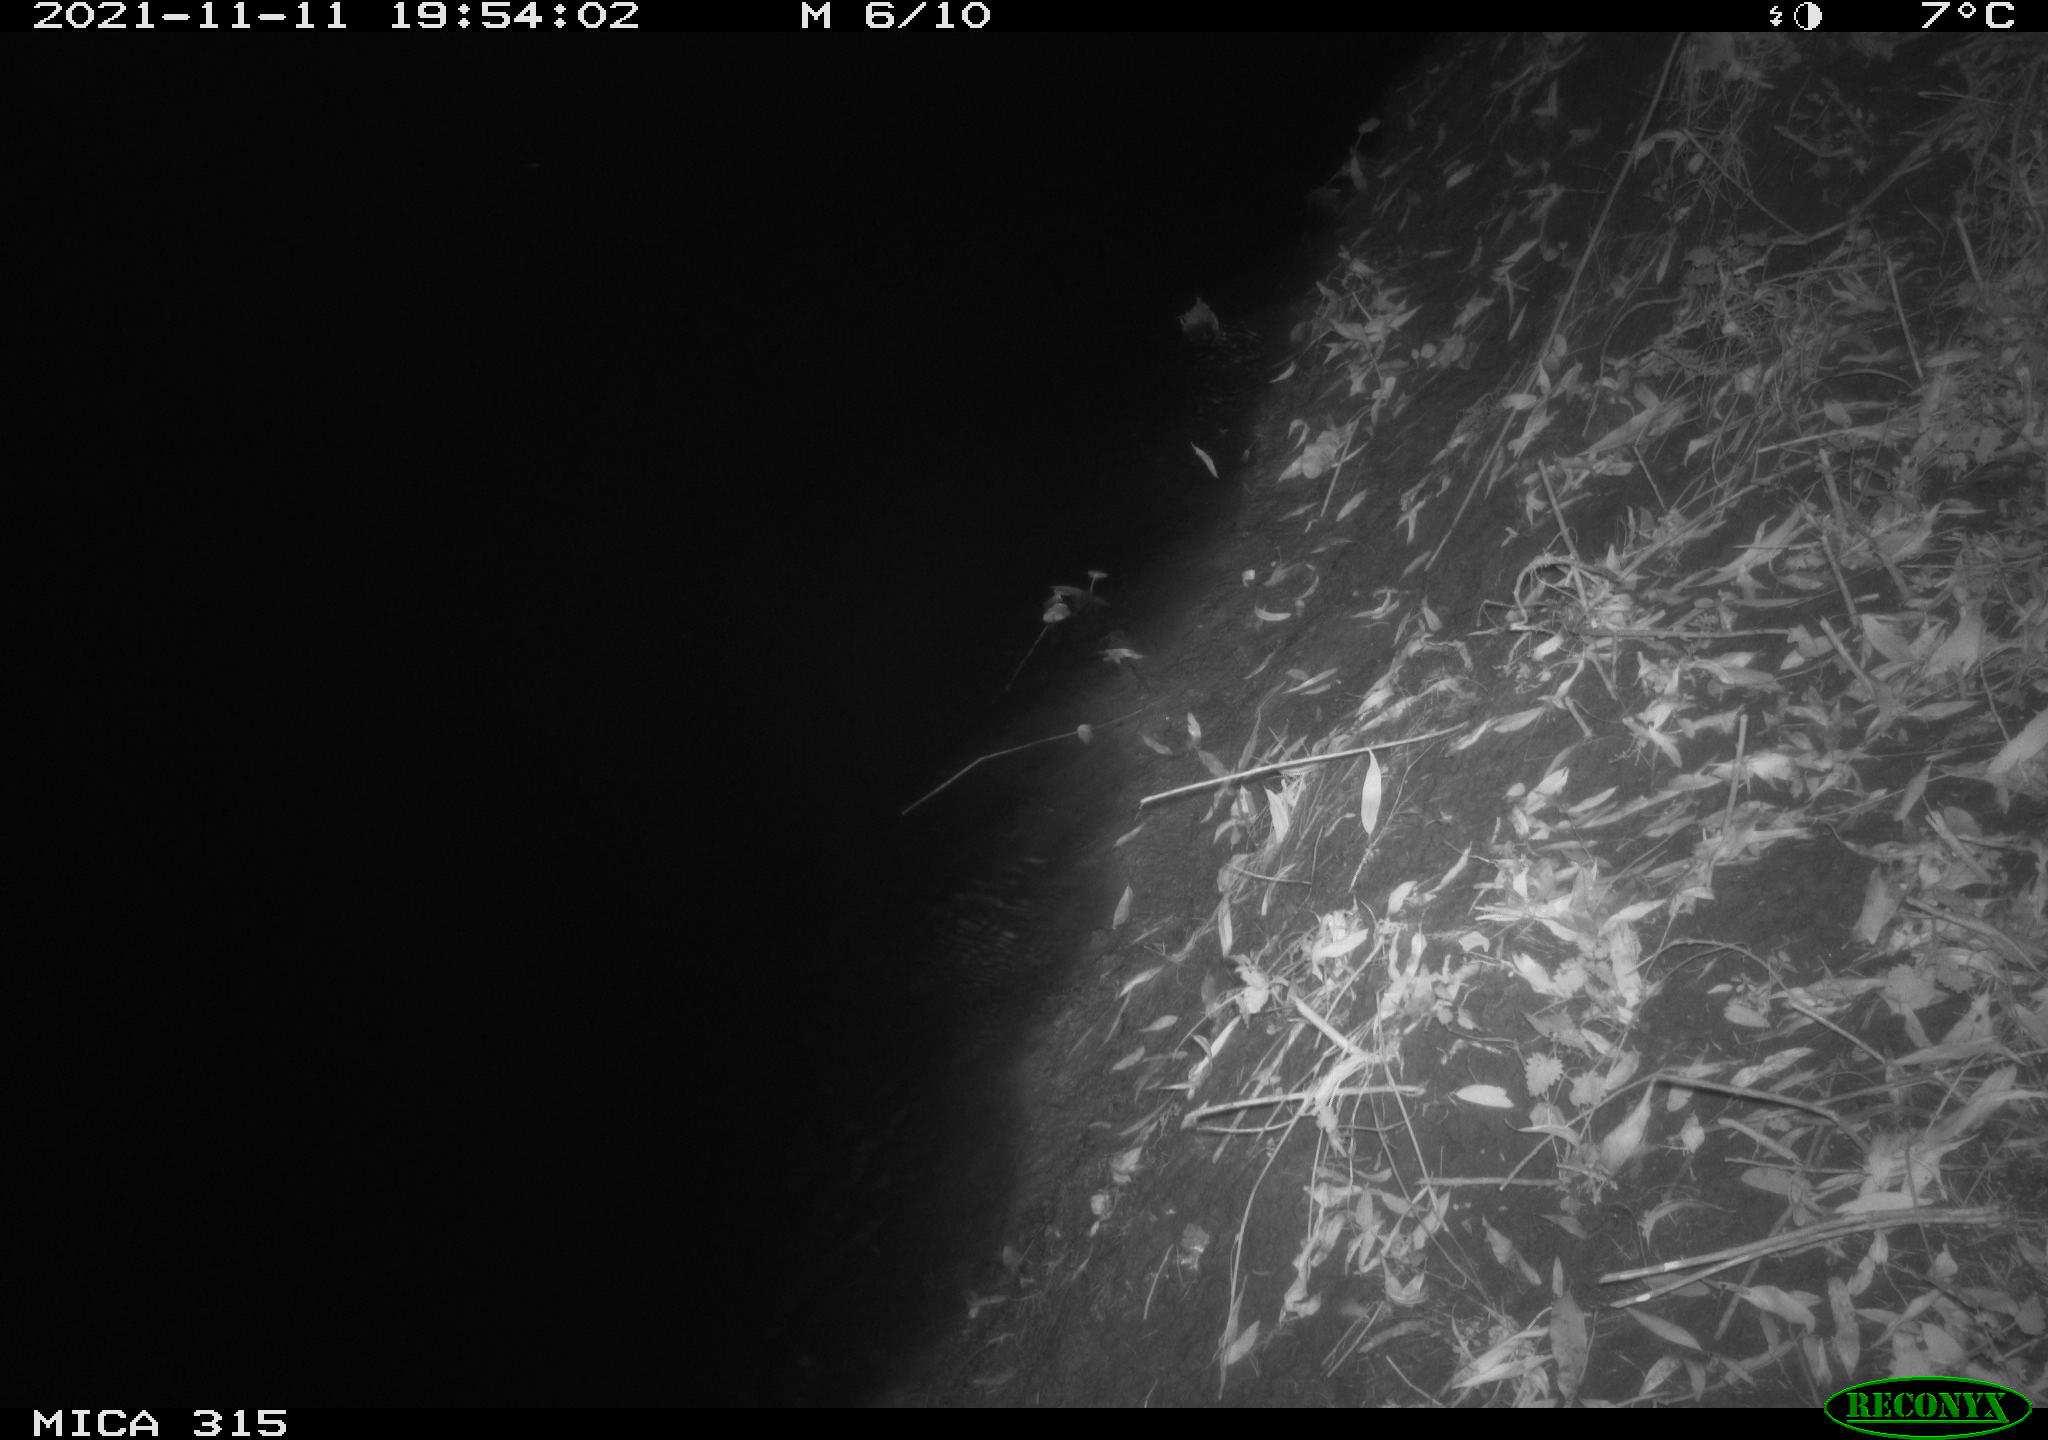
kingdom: Animalia
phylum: Chordata
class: Mammalia
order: Rodentia
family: Muridae
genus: Rattus
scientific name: Rattus norvegicus
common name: Brown rat
